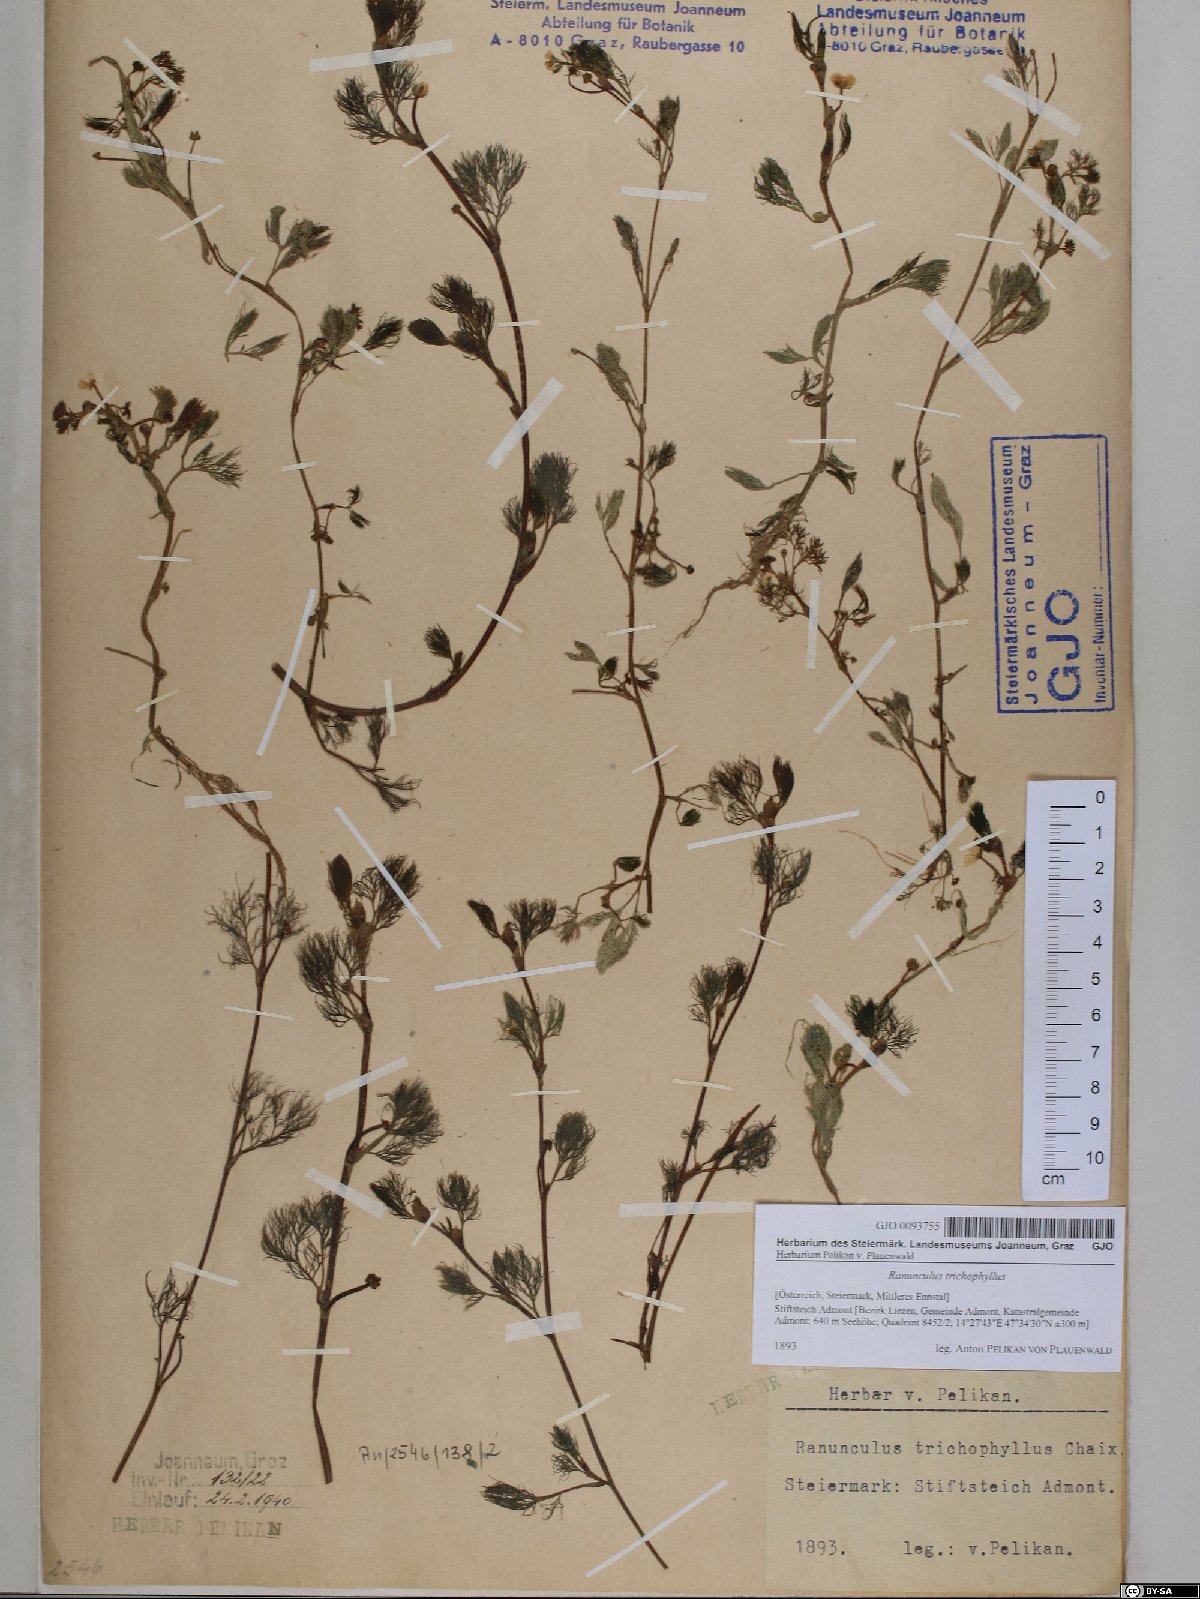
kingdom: Plantae
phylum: Tracheophyta
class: Magnoliopsida
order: Ranunculales
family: Ranunculaceae
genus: Ranunculus
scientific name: Ranunculus trichophyllus
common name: Thread-leaved water-crowfoot
